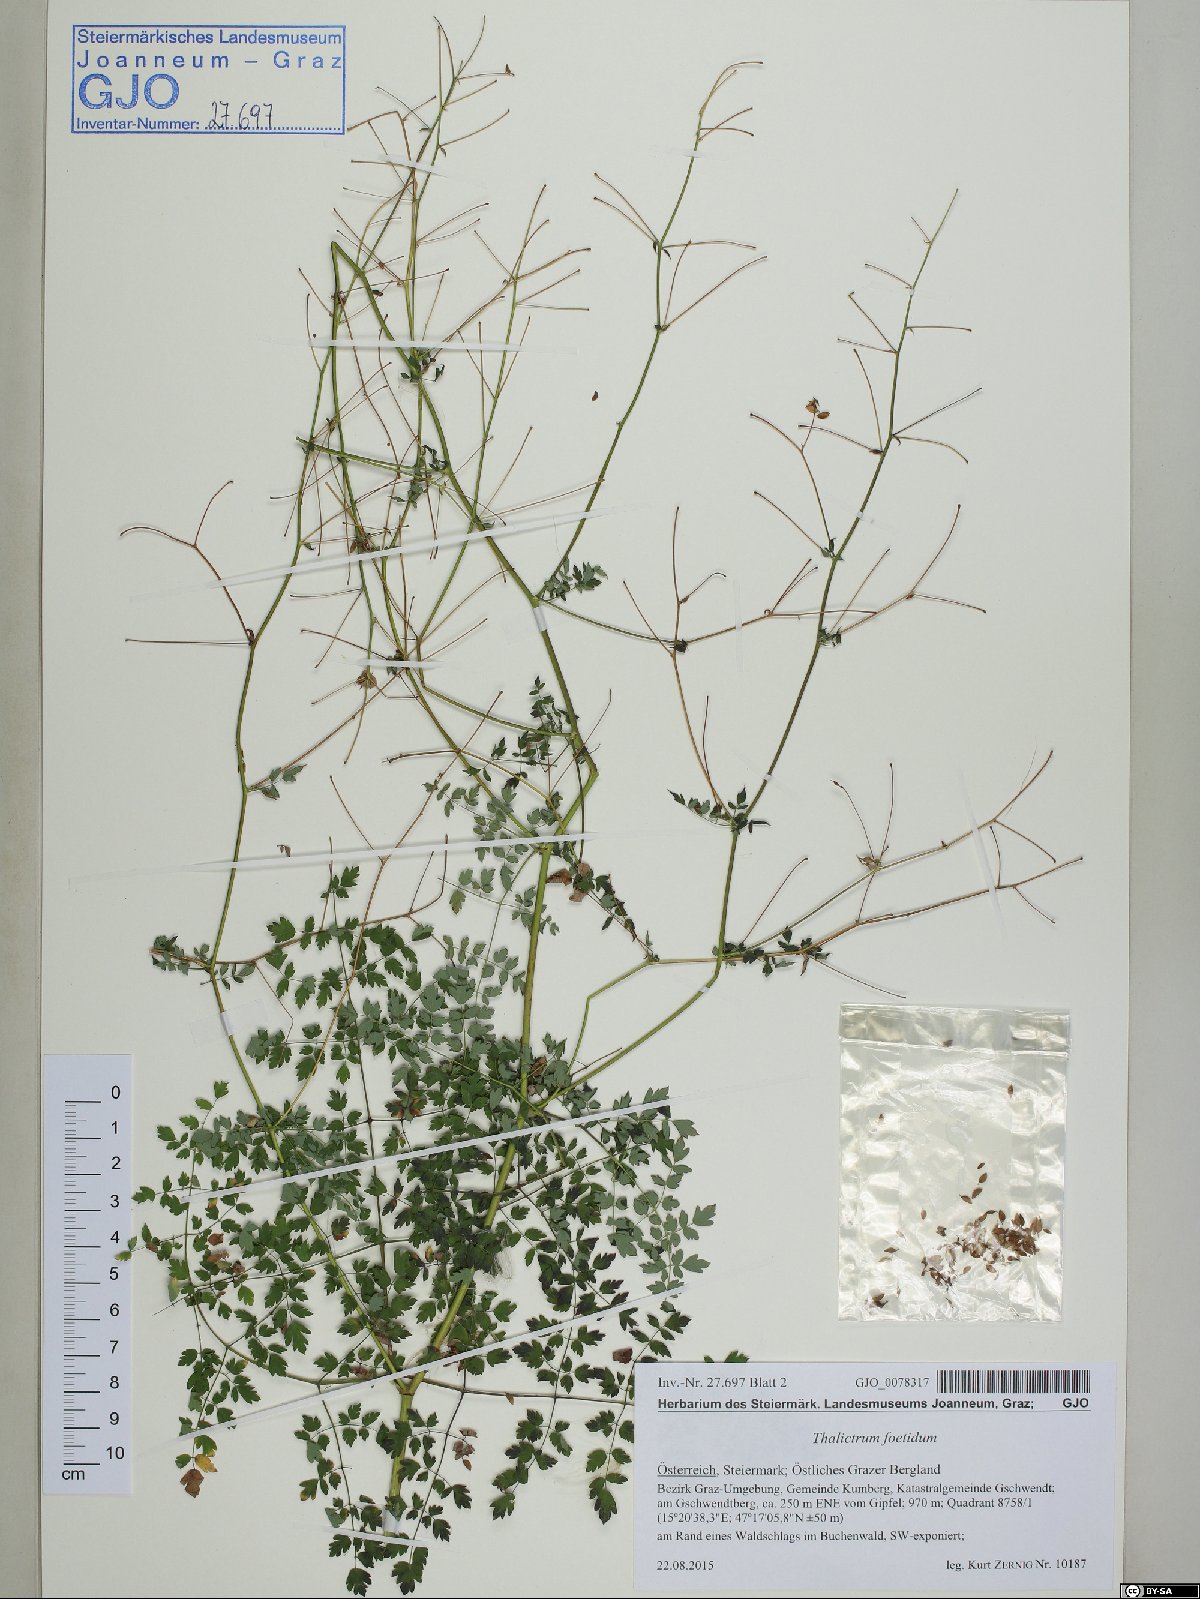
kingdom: Plantae
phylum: Tracheophyta
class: Magnoliopsida
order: Ranunculales
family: Ranunculaceae
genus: Thalictrum
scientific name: Thalictrum foetidum
